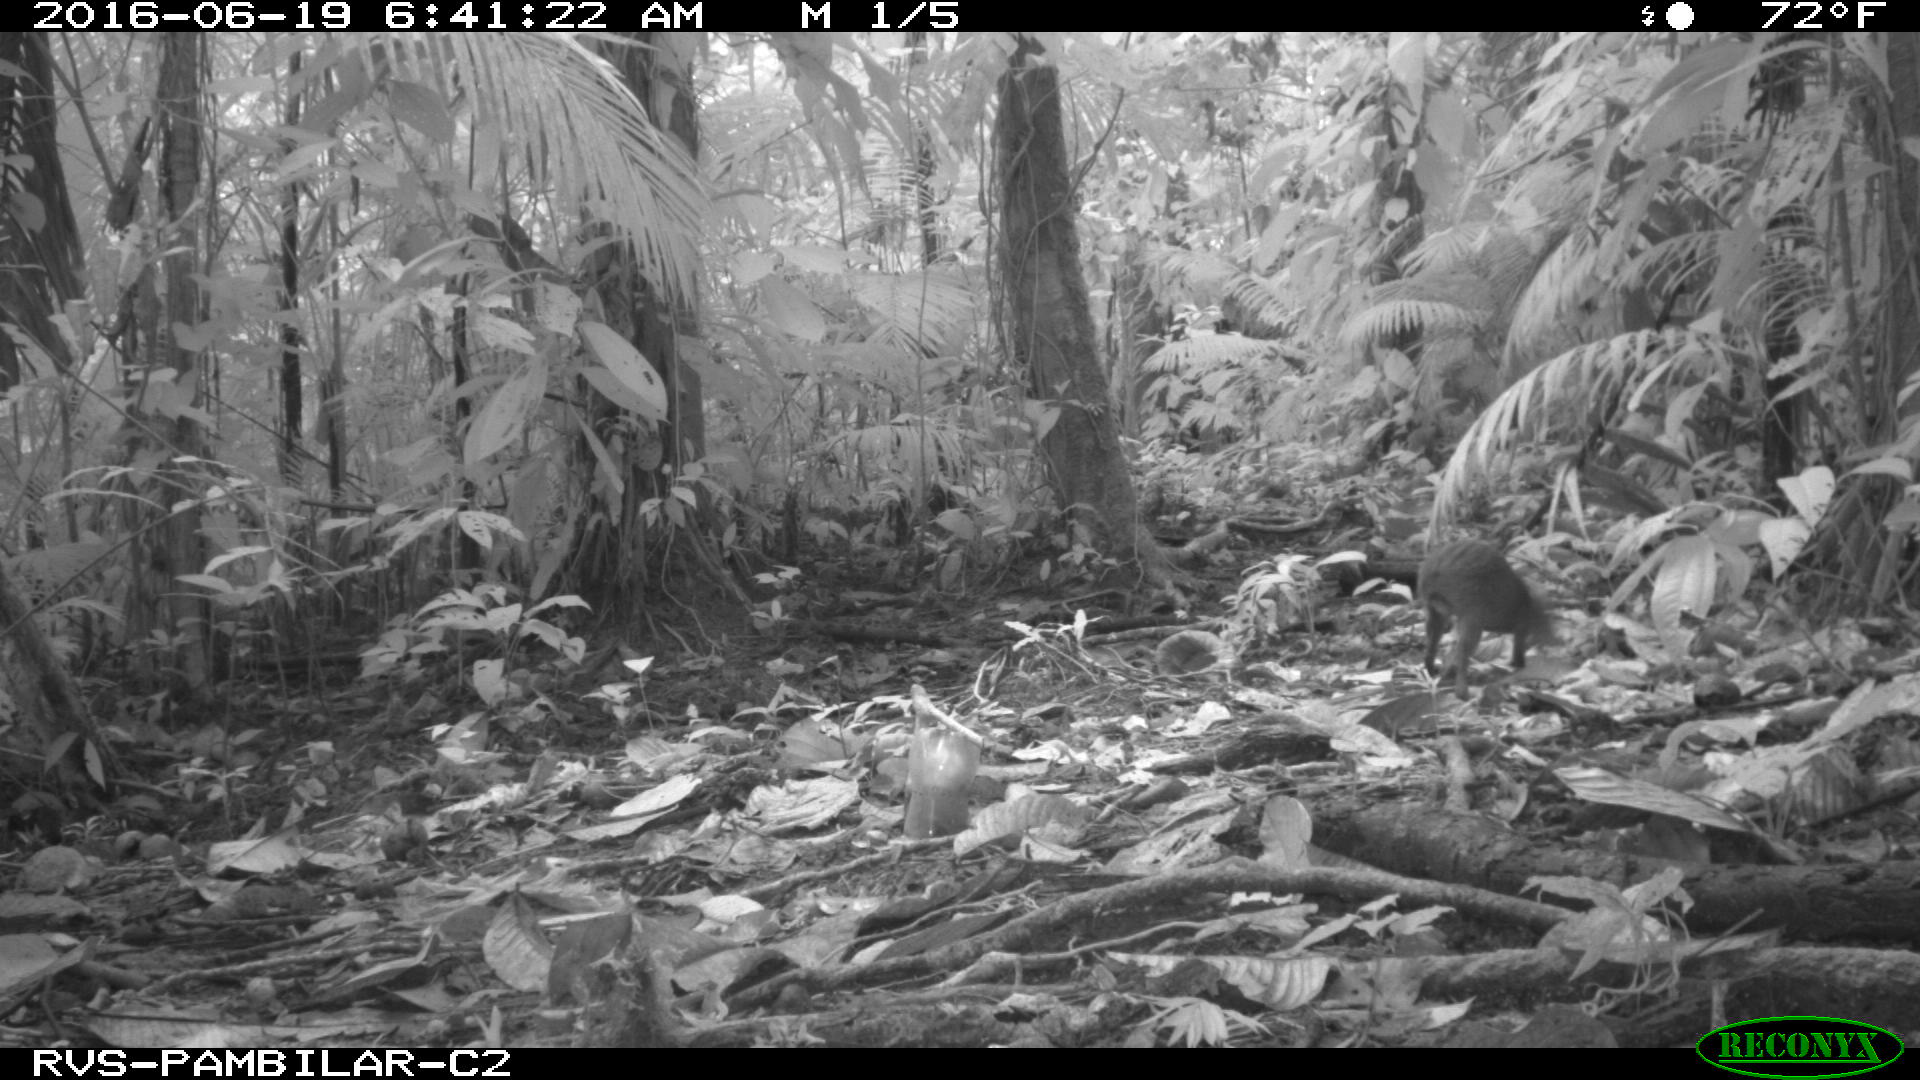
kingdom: Animalia
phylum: Chordata
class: Mammalia
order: Rodentia
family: Dasyproctidae
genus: Dasyprocta
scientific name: Dasyprocta punctata
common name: Central american agouti
